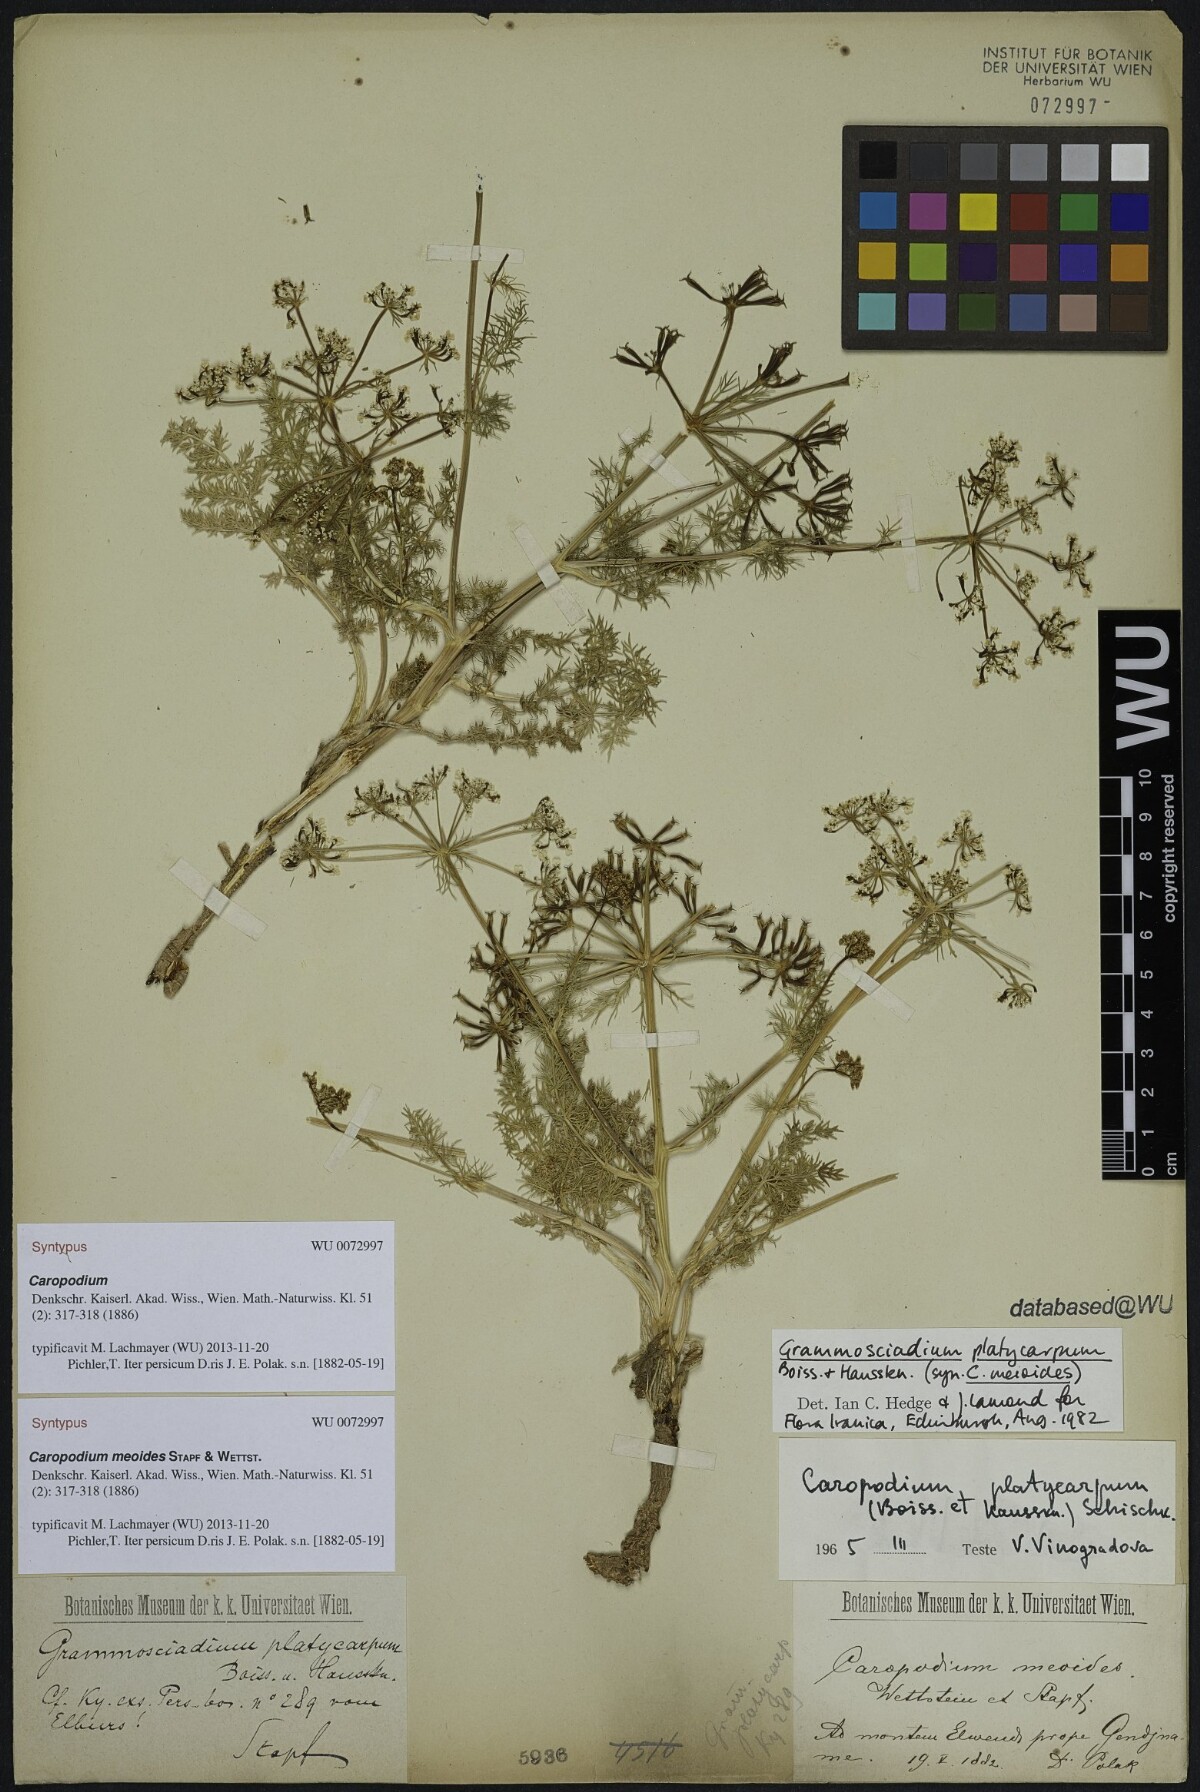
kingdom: Plantae
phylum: Tracheophyta
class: Magnoliopsida
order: Apiales
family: Apiaceae
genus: Chaerophyllum
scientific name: Chaerophyllum macrospermum
